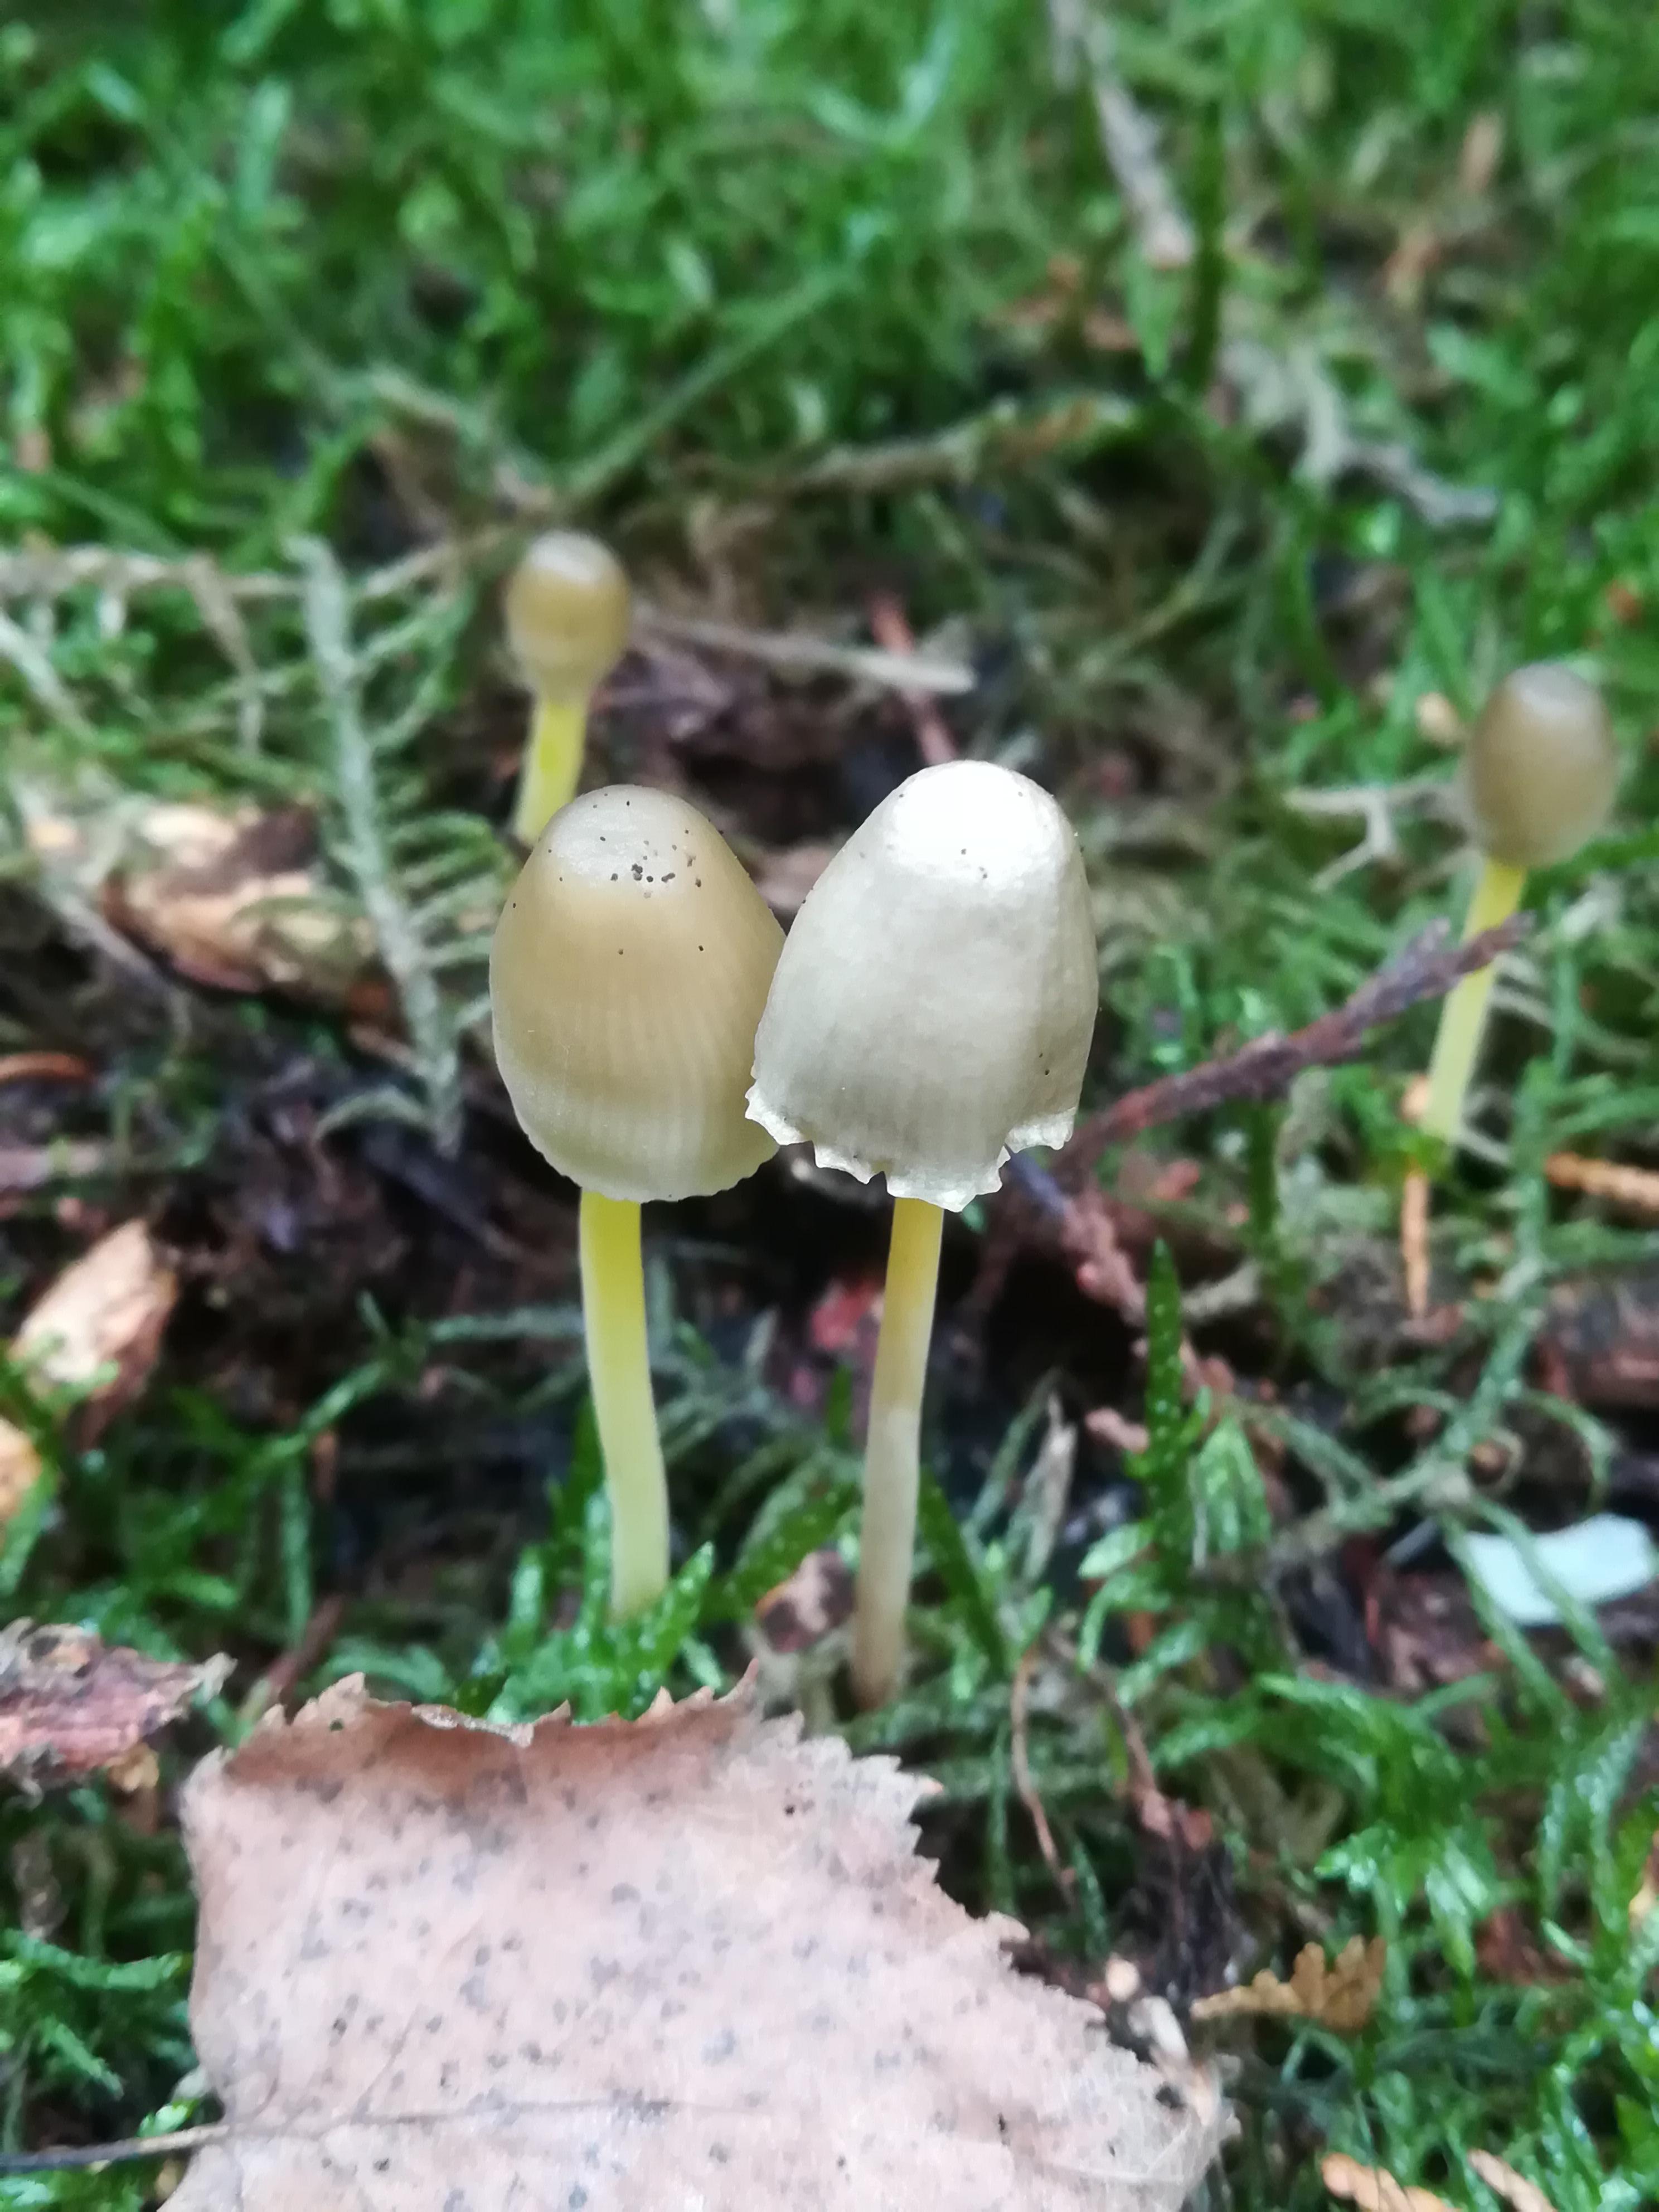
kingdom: Fungi
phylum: Basidiomycota
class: Agaricomycetes
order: Agaricales
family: Mycenaceae
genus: Mycena
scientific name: Mycena epipterygia
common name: gulstokket huesvamp
